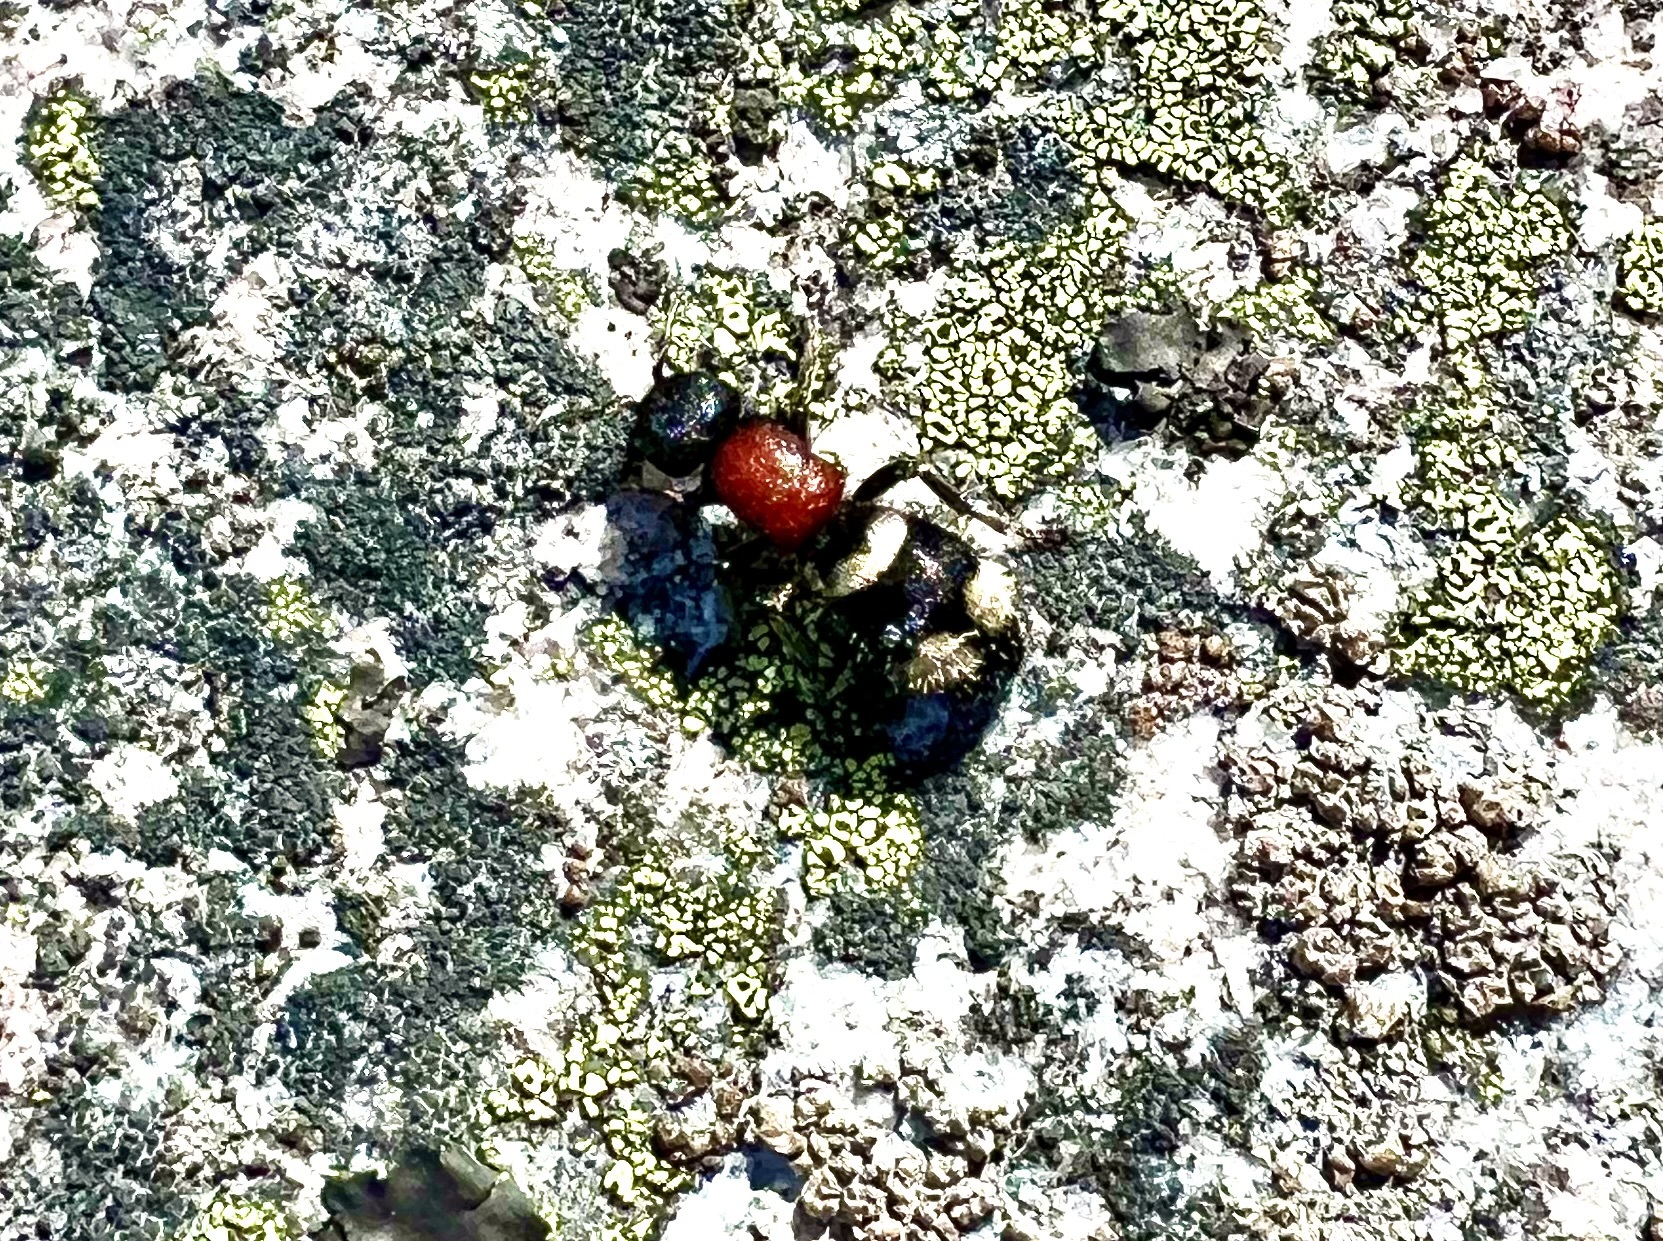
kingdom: Animalia
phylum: Arthropoda
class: Insecta
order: Hymenoptera
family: Mutillidae
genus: Mutilla
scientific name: Mutilla europaea
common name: Large velvet ant
